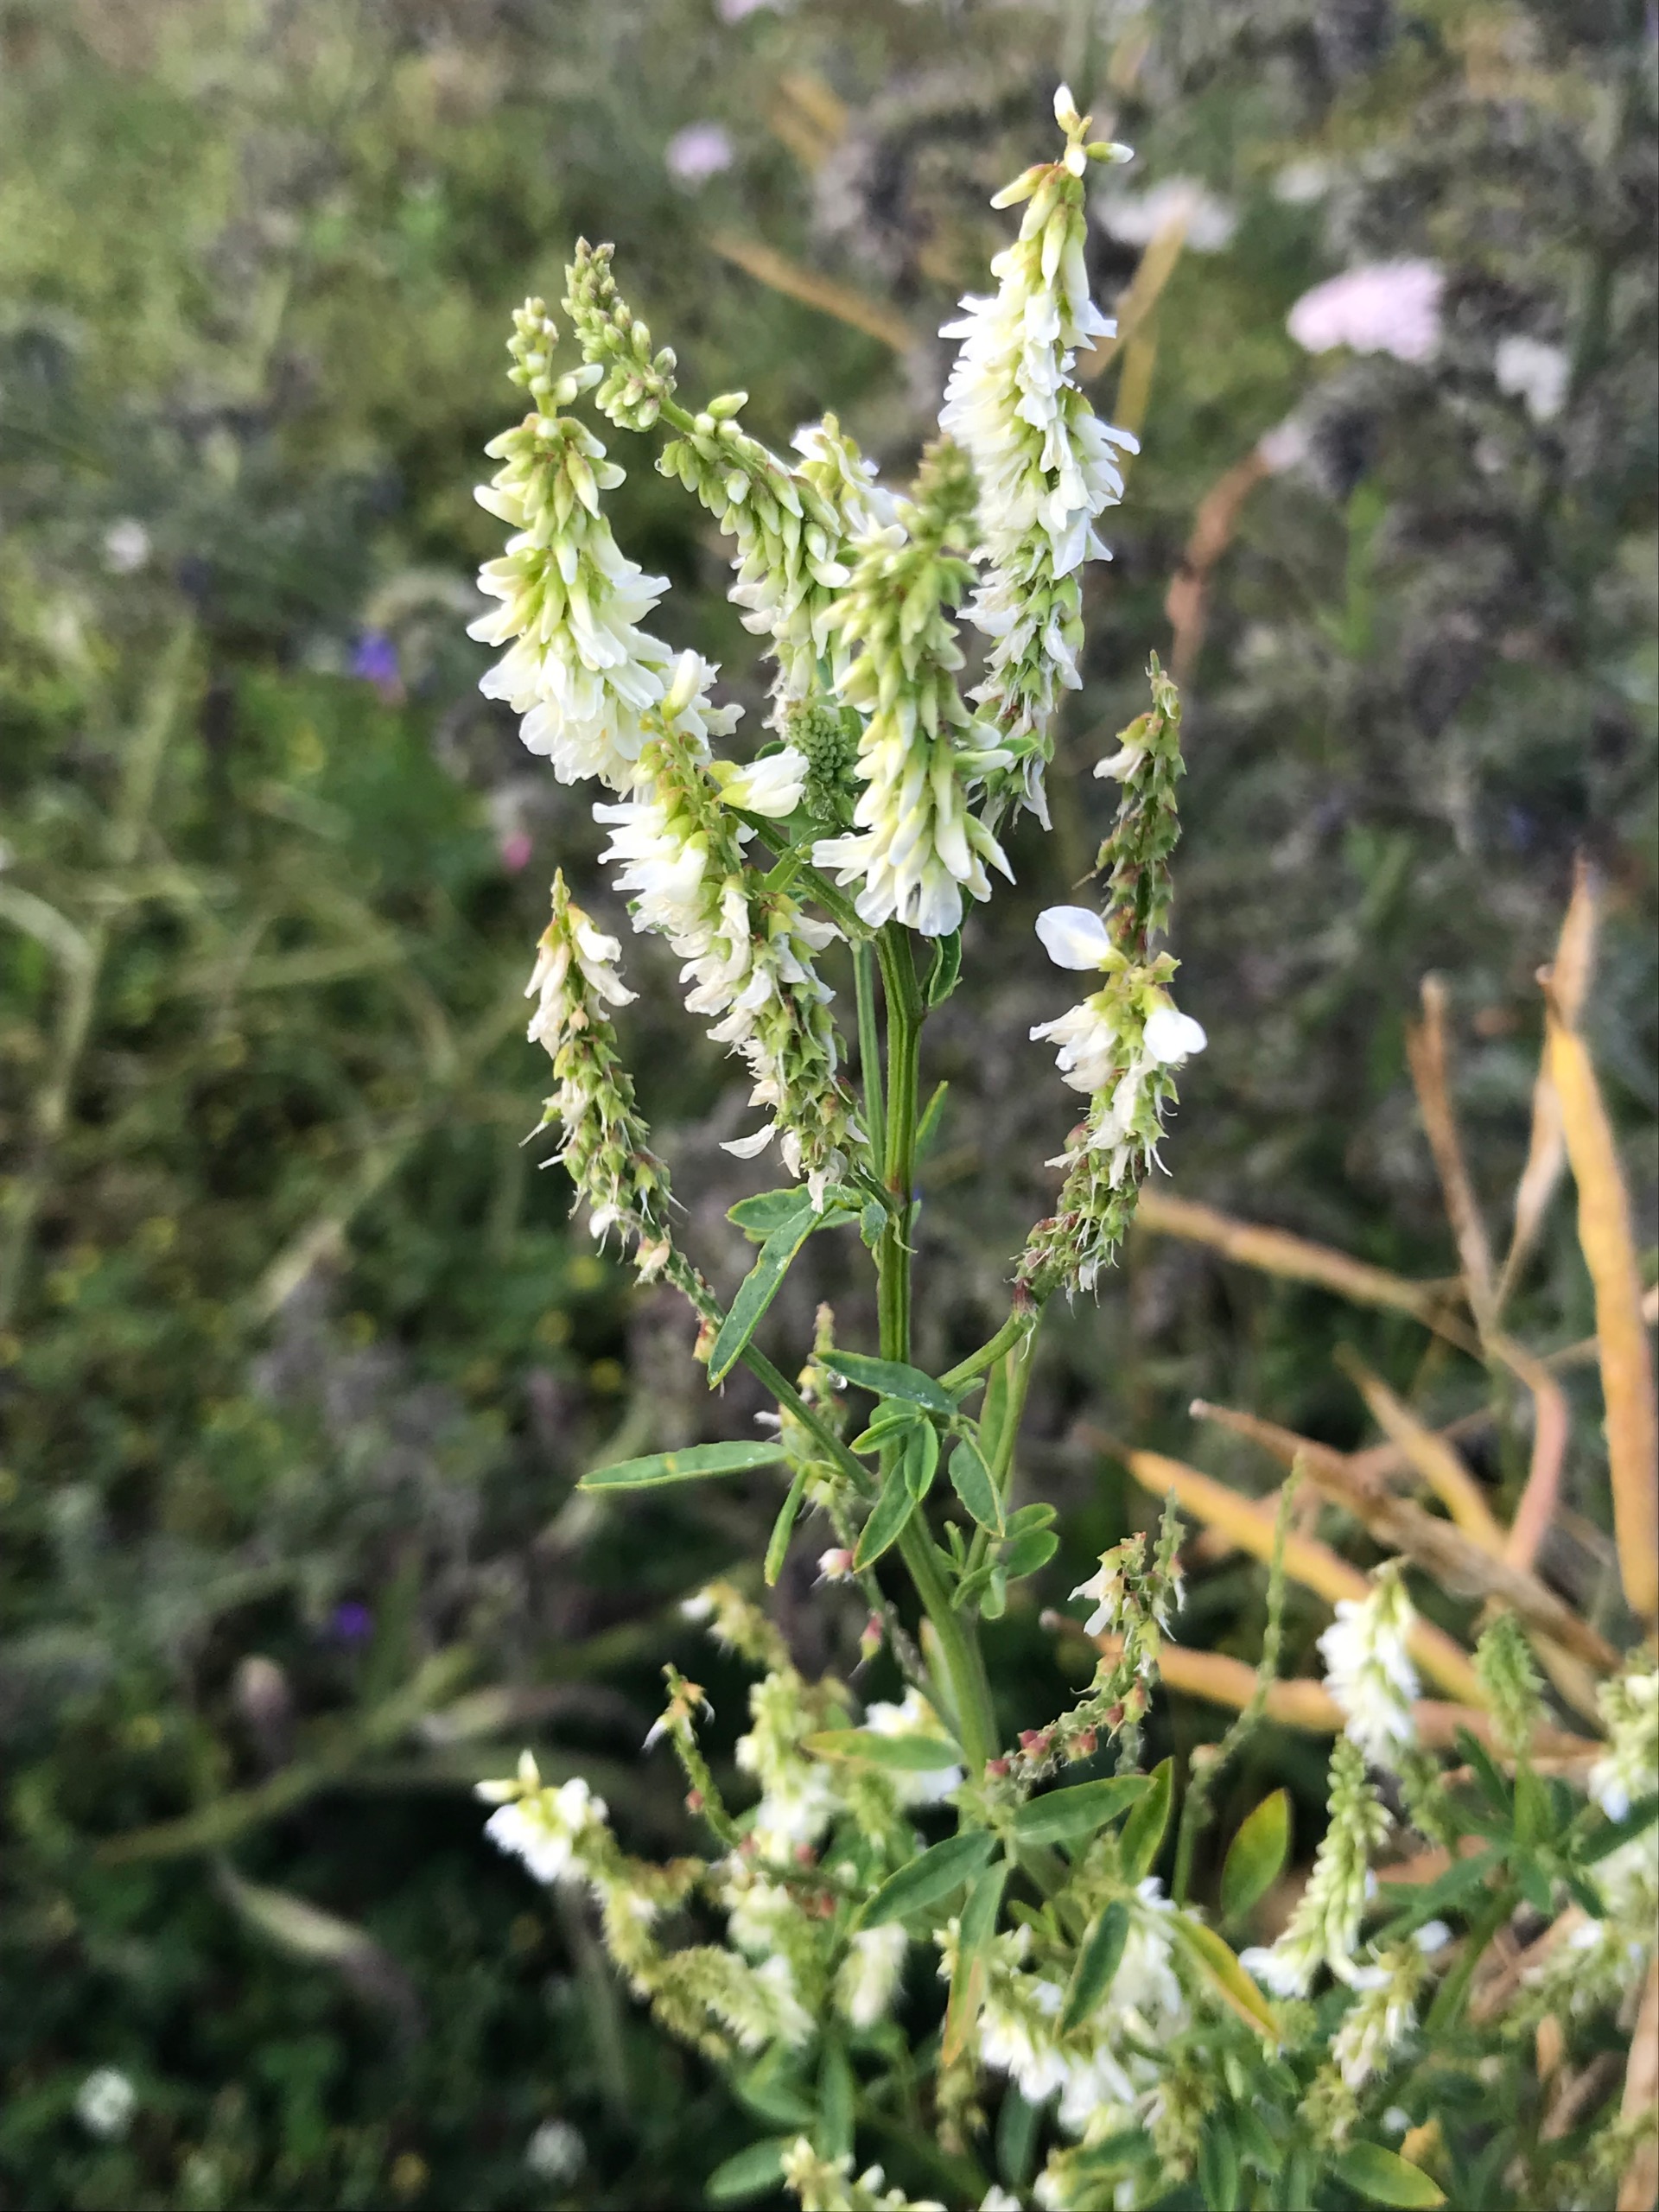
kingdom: Plantae
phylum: Tracheophyta
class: Magnoliopsida
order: Fabales
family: Fabaceae
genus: Melilotus
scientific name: Melilotus albus
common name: Hvid stenkløver
